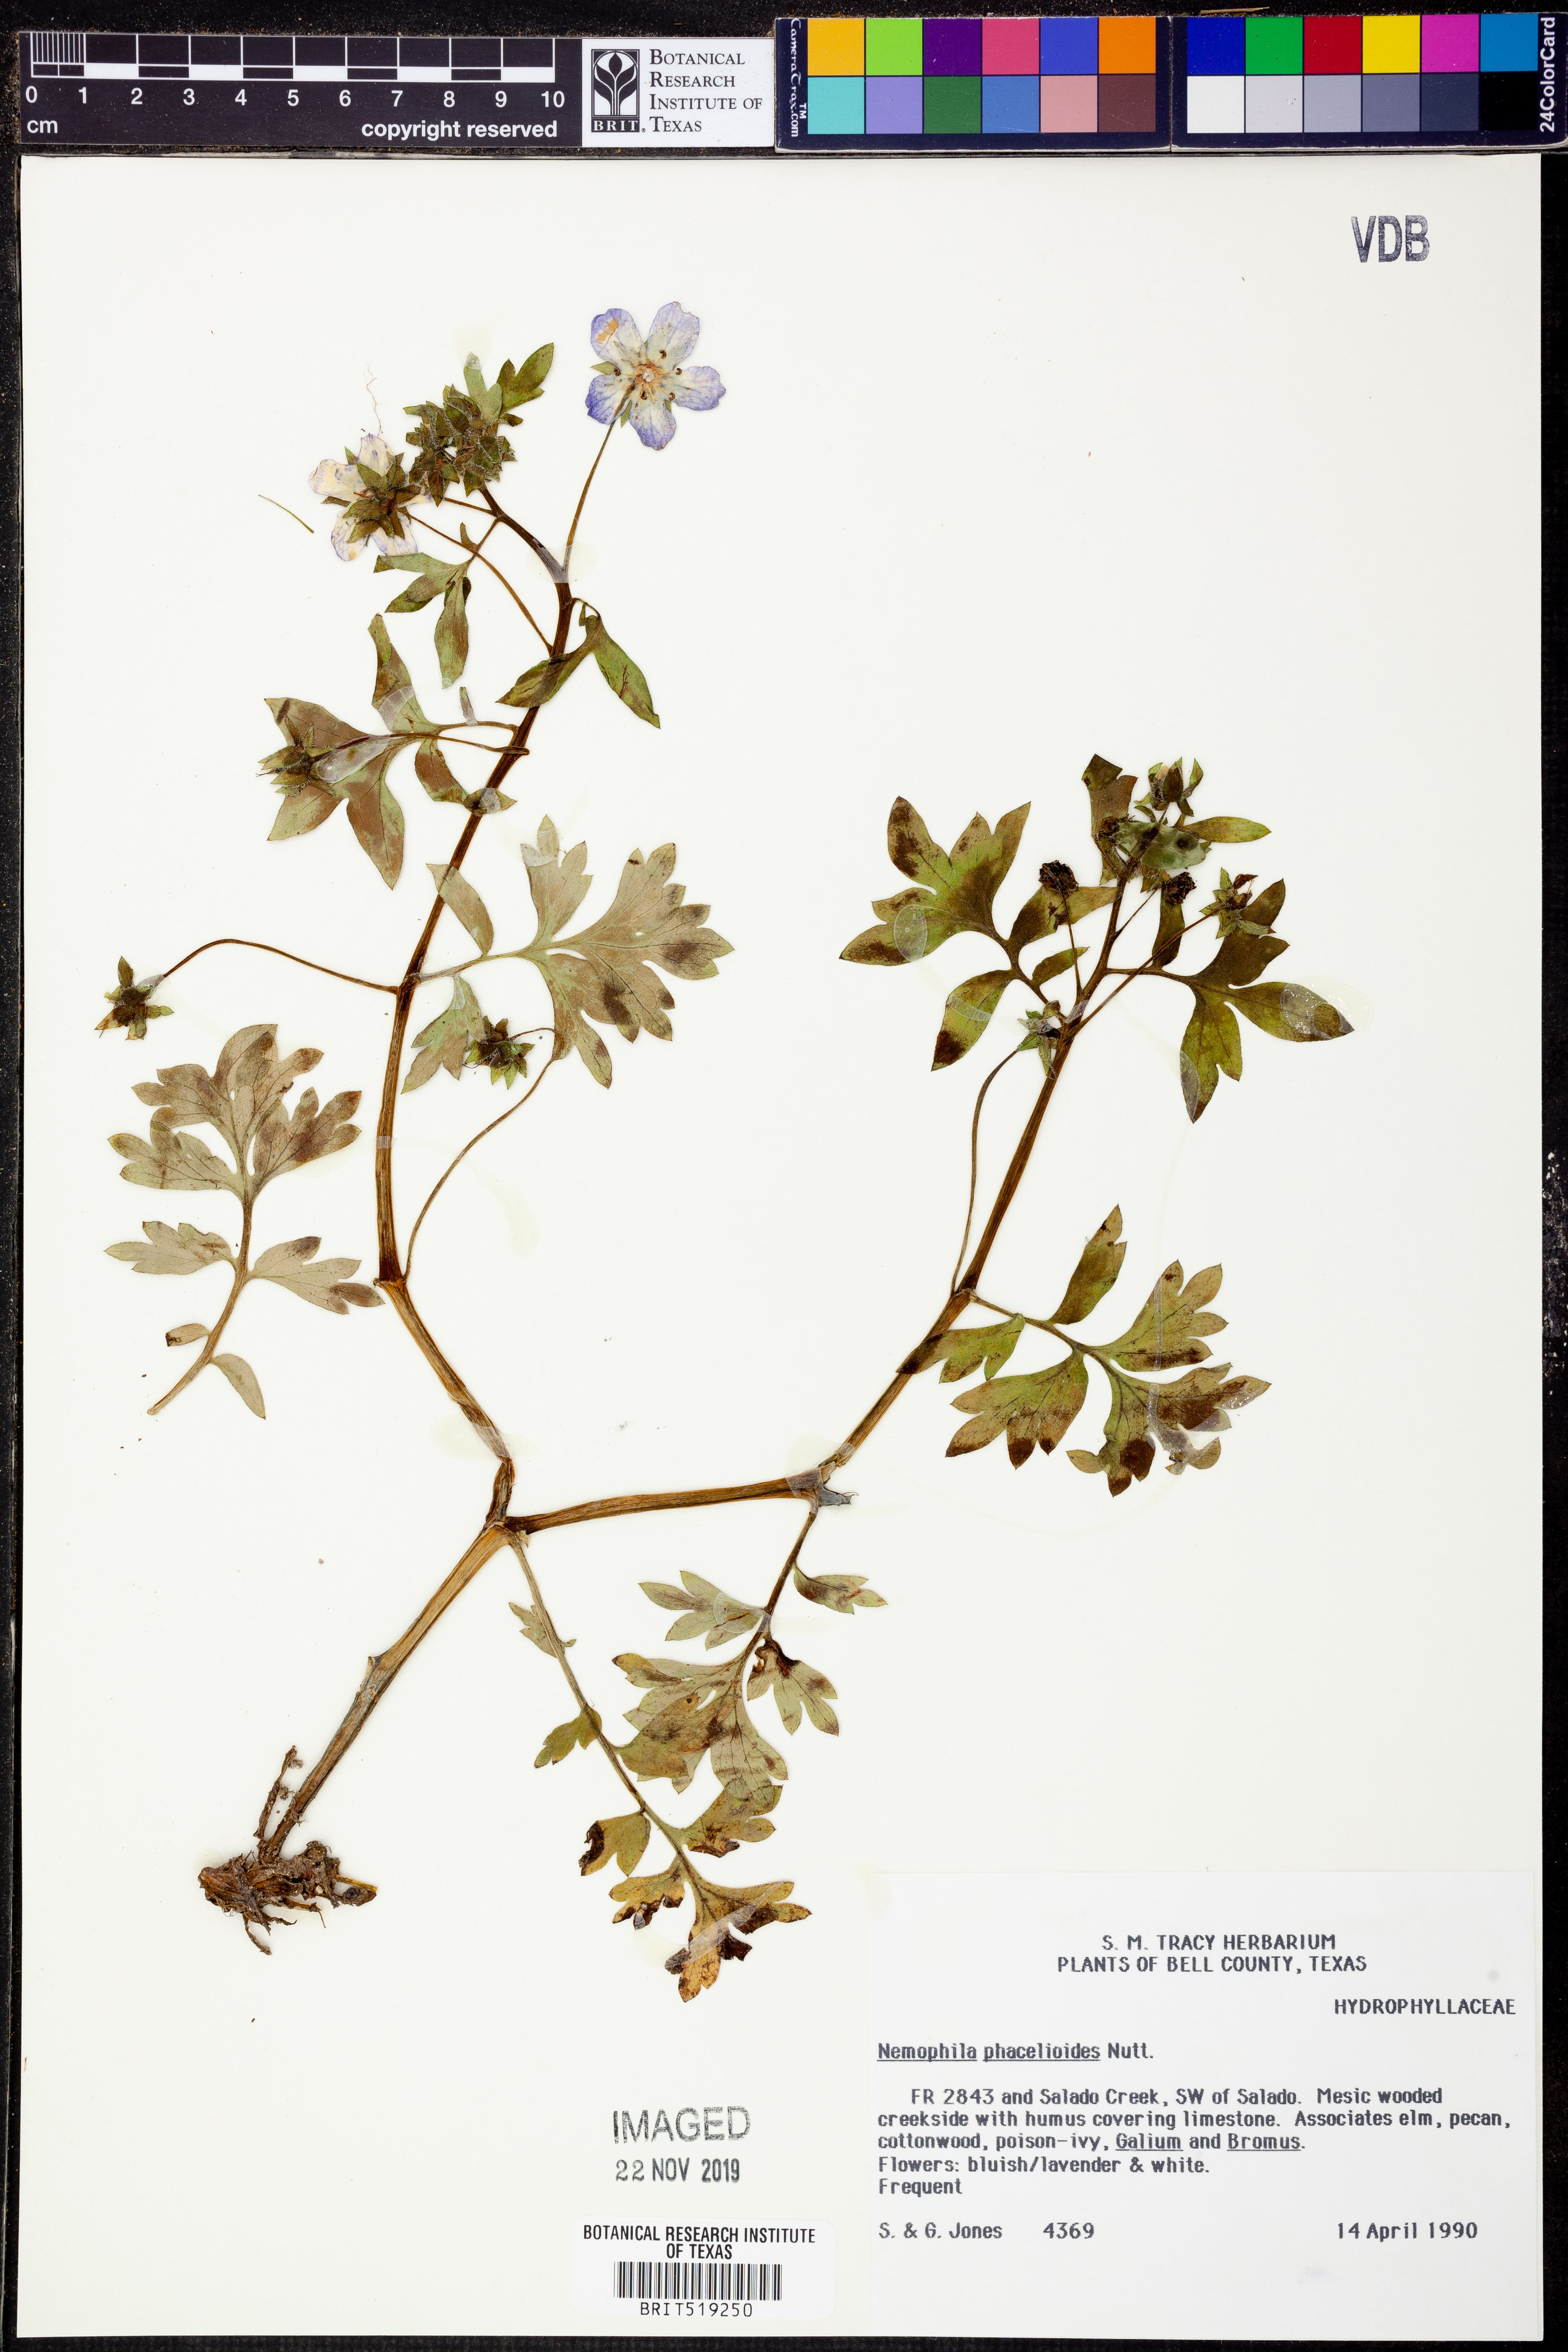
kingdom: Plantae
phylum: Tracheophyta
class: Magnoliopsida
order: Boraginales
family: Hydrophyllaceae
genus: Nemophila
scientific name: Nemophila phacelioides
